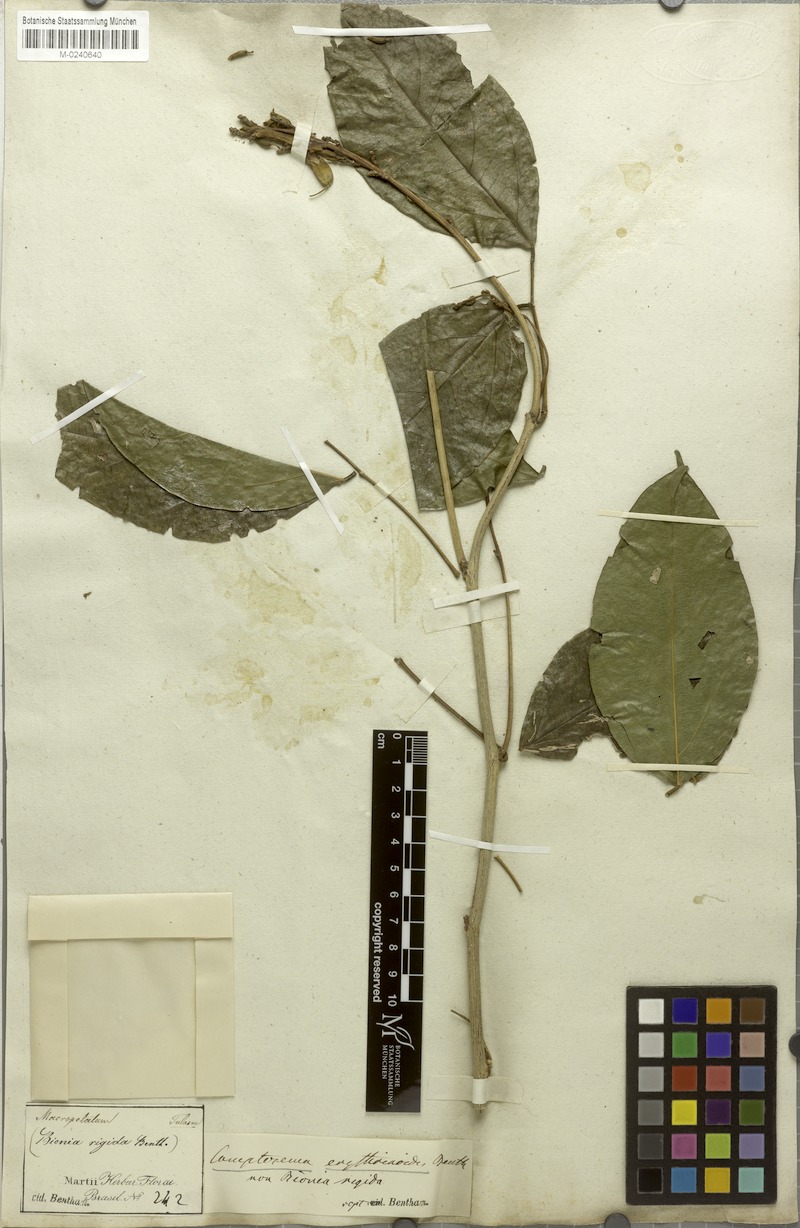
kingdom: Plantae
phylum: Tracheophyta
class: Magnoliopsida
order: Fabales
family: Fabaceae
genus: Cratylia
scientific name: Cratylia isopetala
